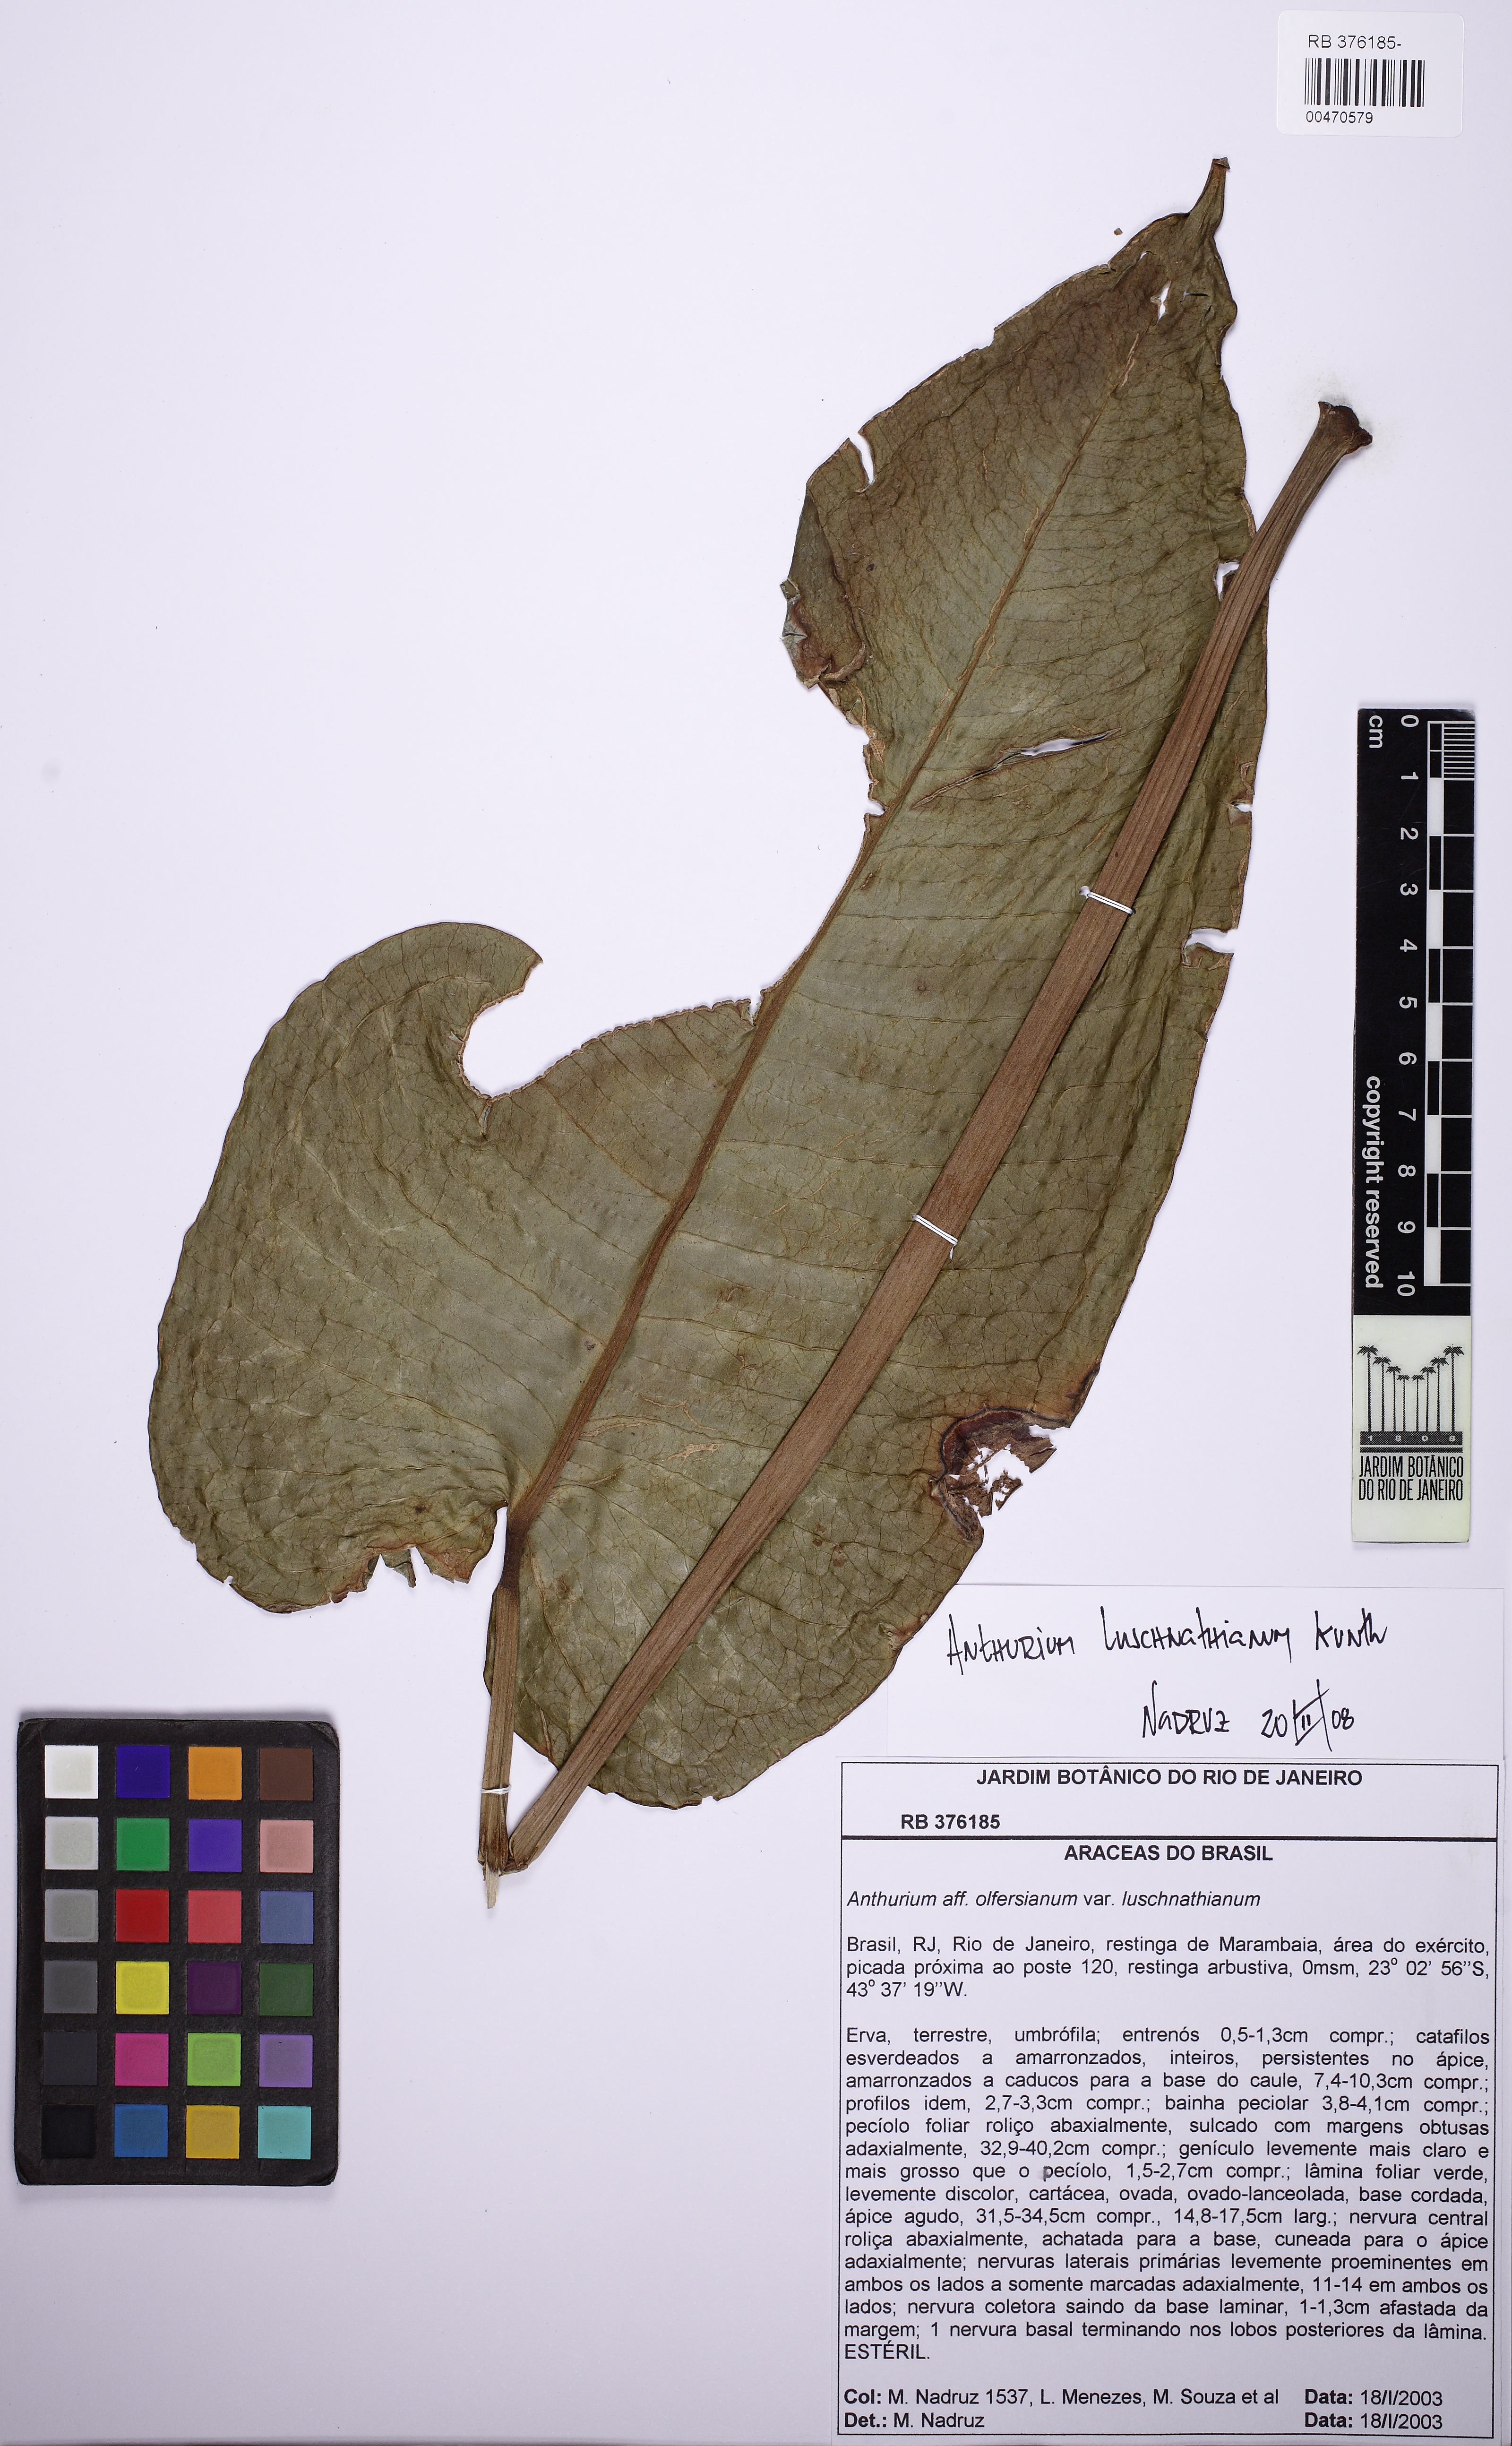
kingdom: Plantae
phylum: Tracheophyta
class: Liliopsida
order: Alismatales
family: Araceae
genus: Anthurium
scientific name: Anthurium luschnathianum
